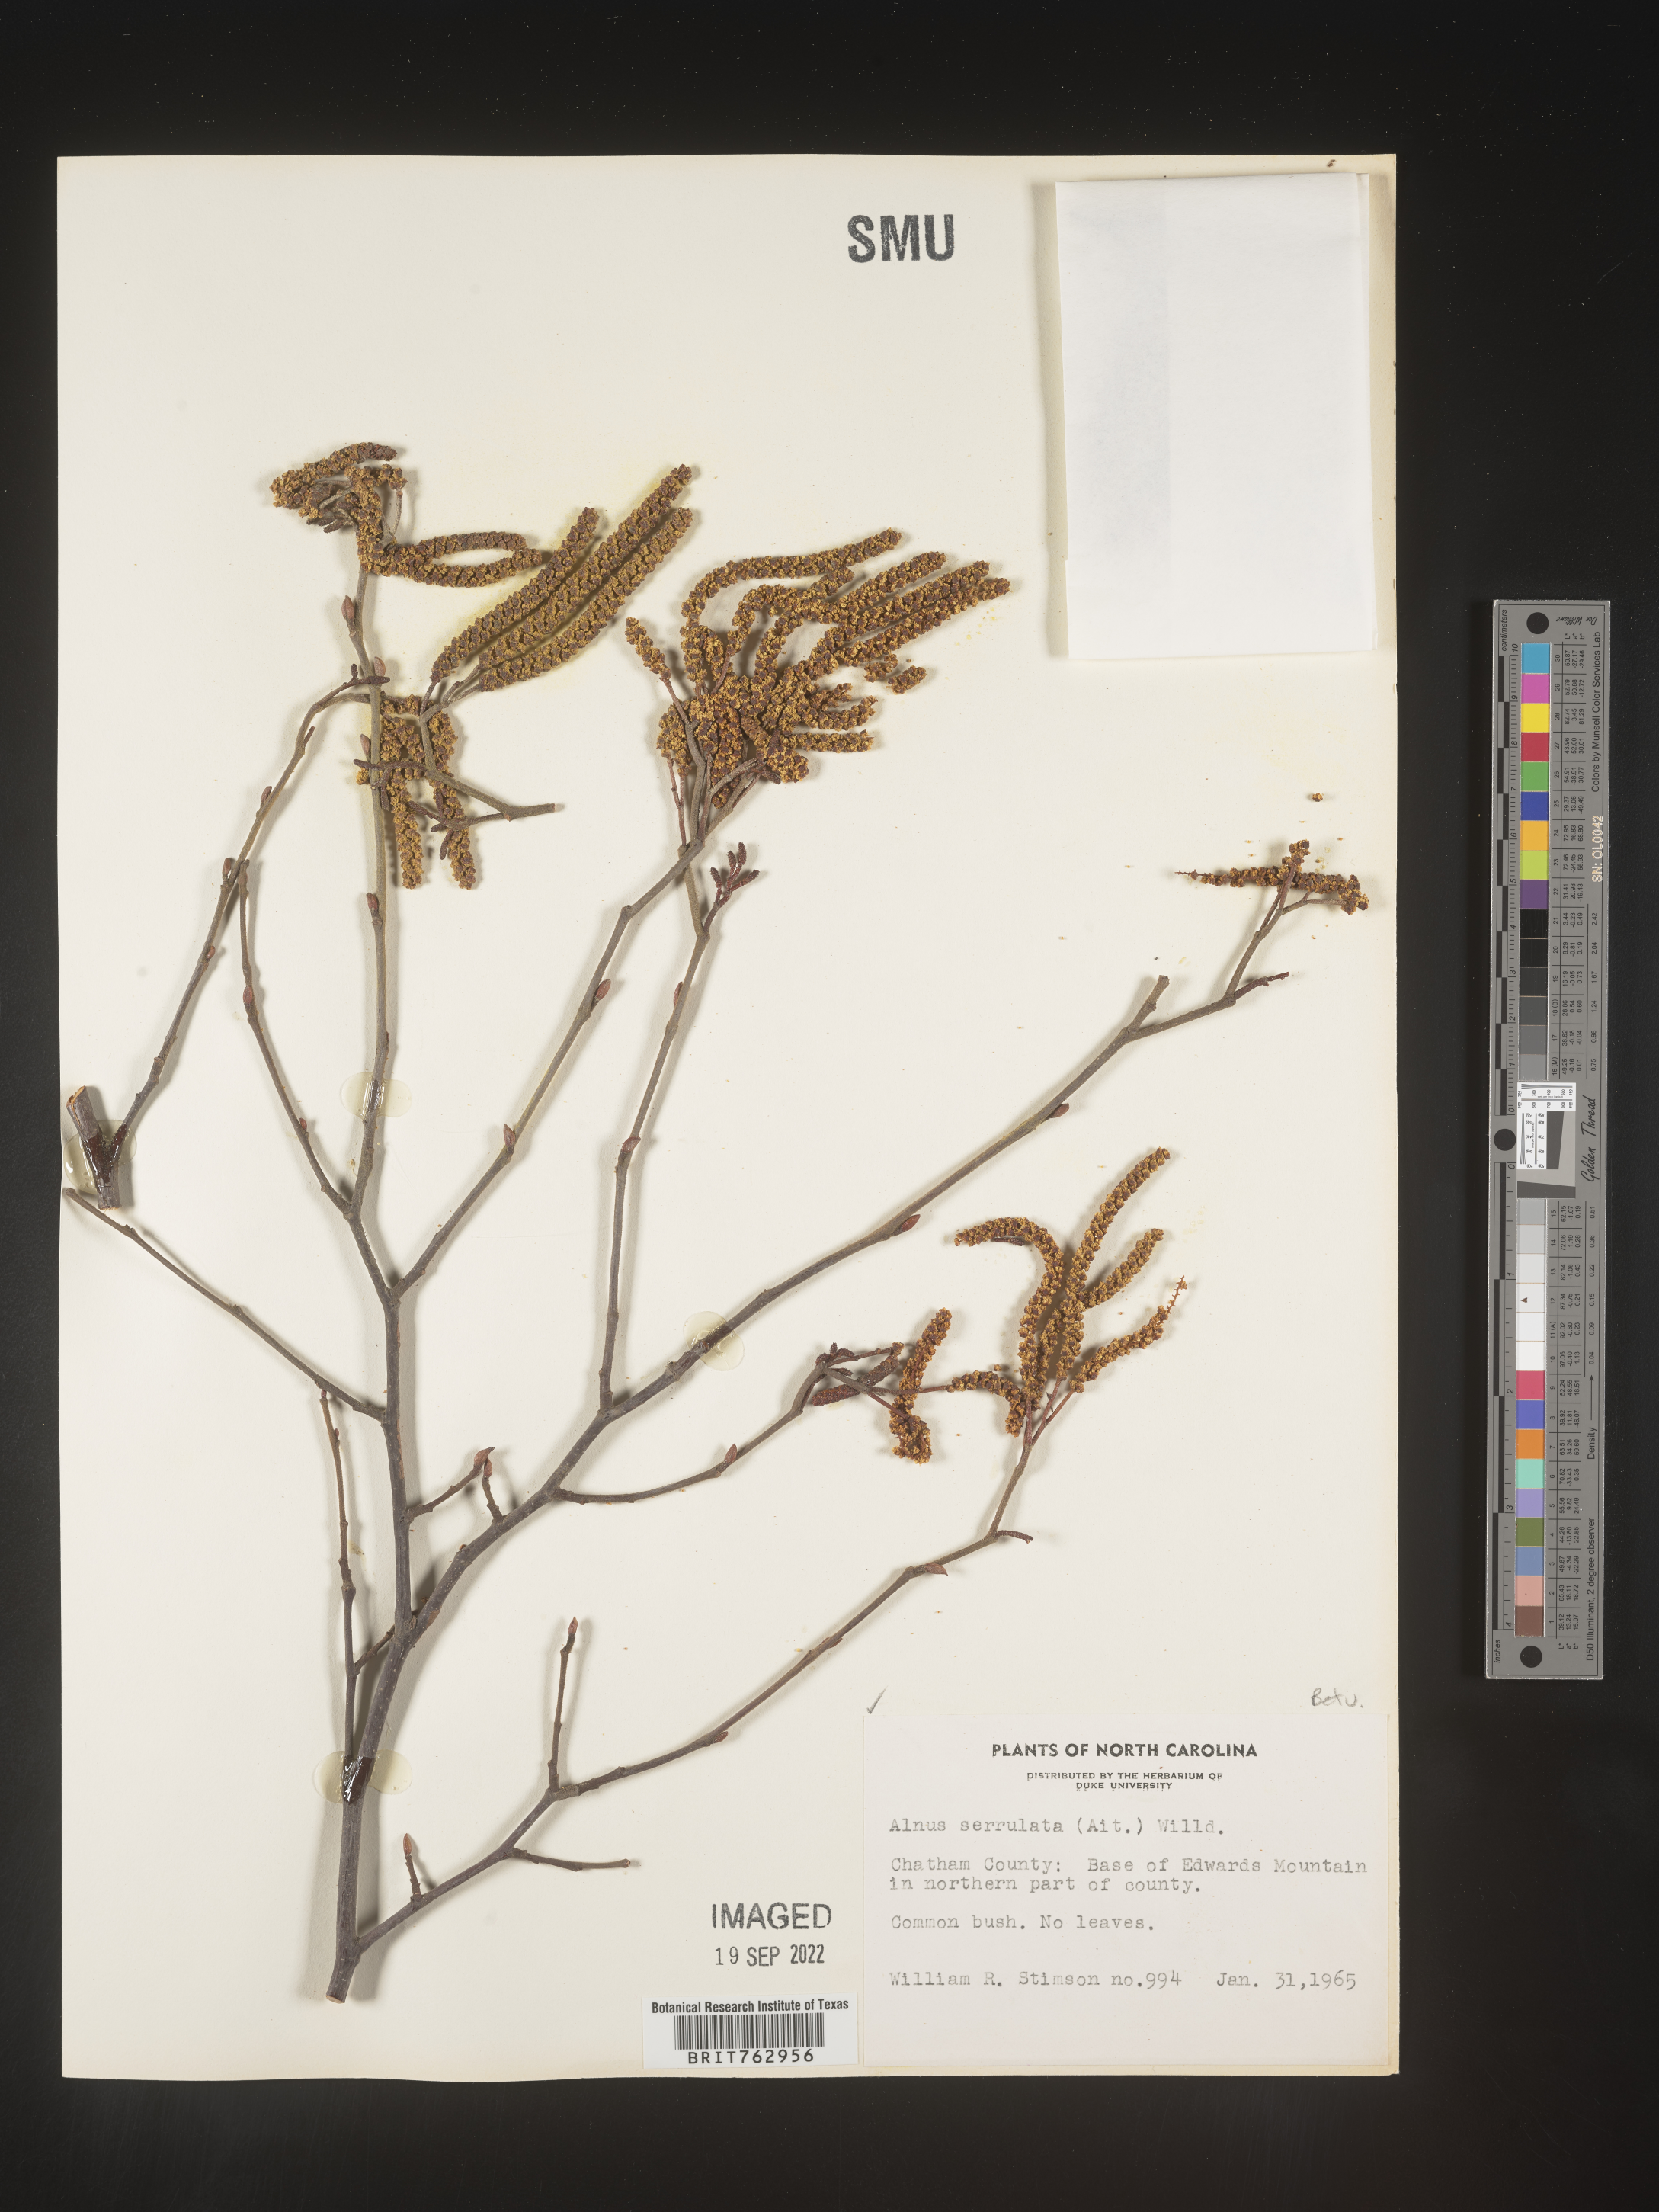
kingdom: Plantae
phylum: Tracheophyta
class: Magnoliopsida
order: Fagales
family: Betulaceae
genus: Alnus
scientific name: Alnus serrulata
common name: Hazel alder
